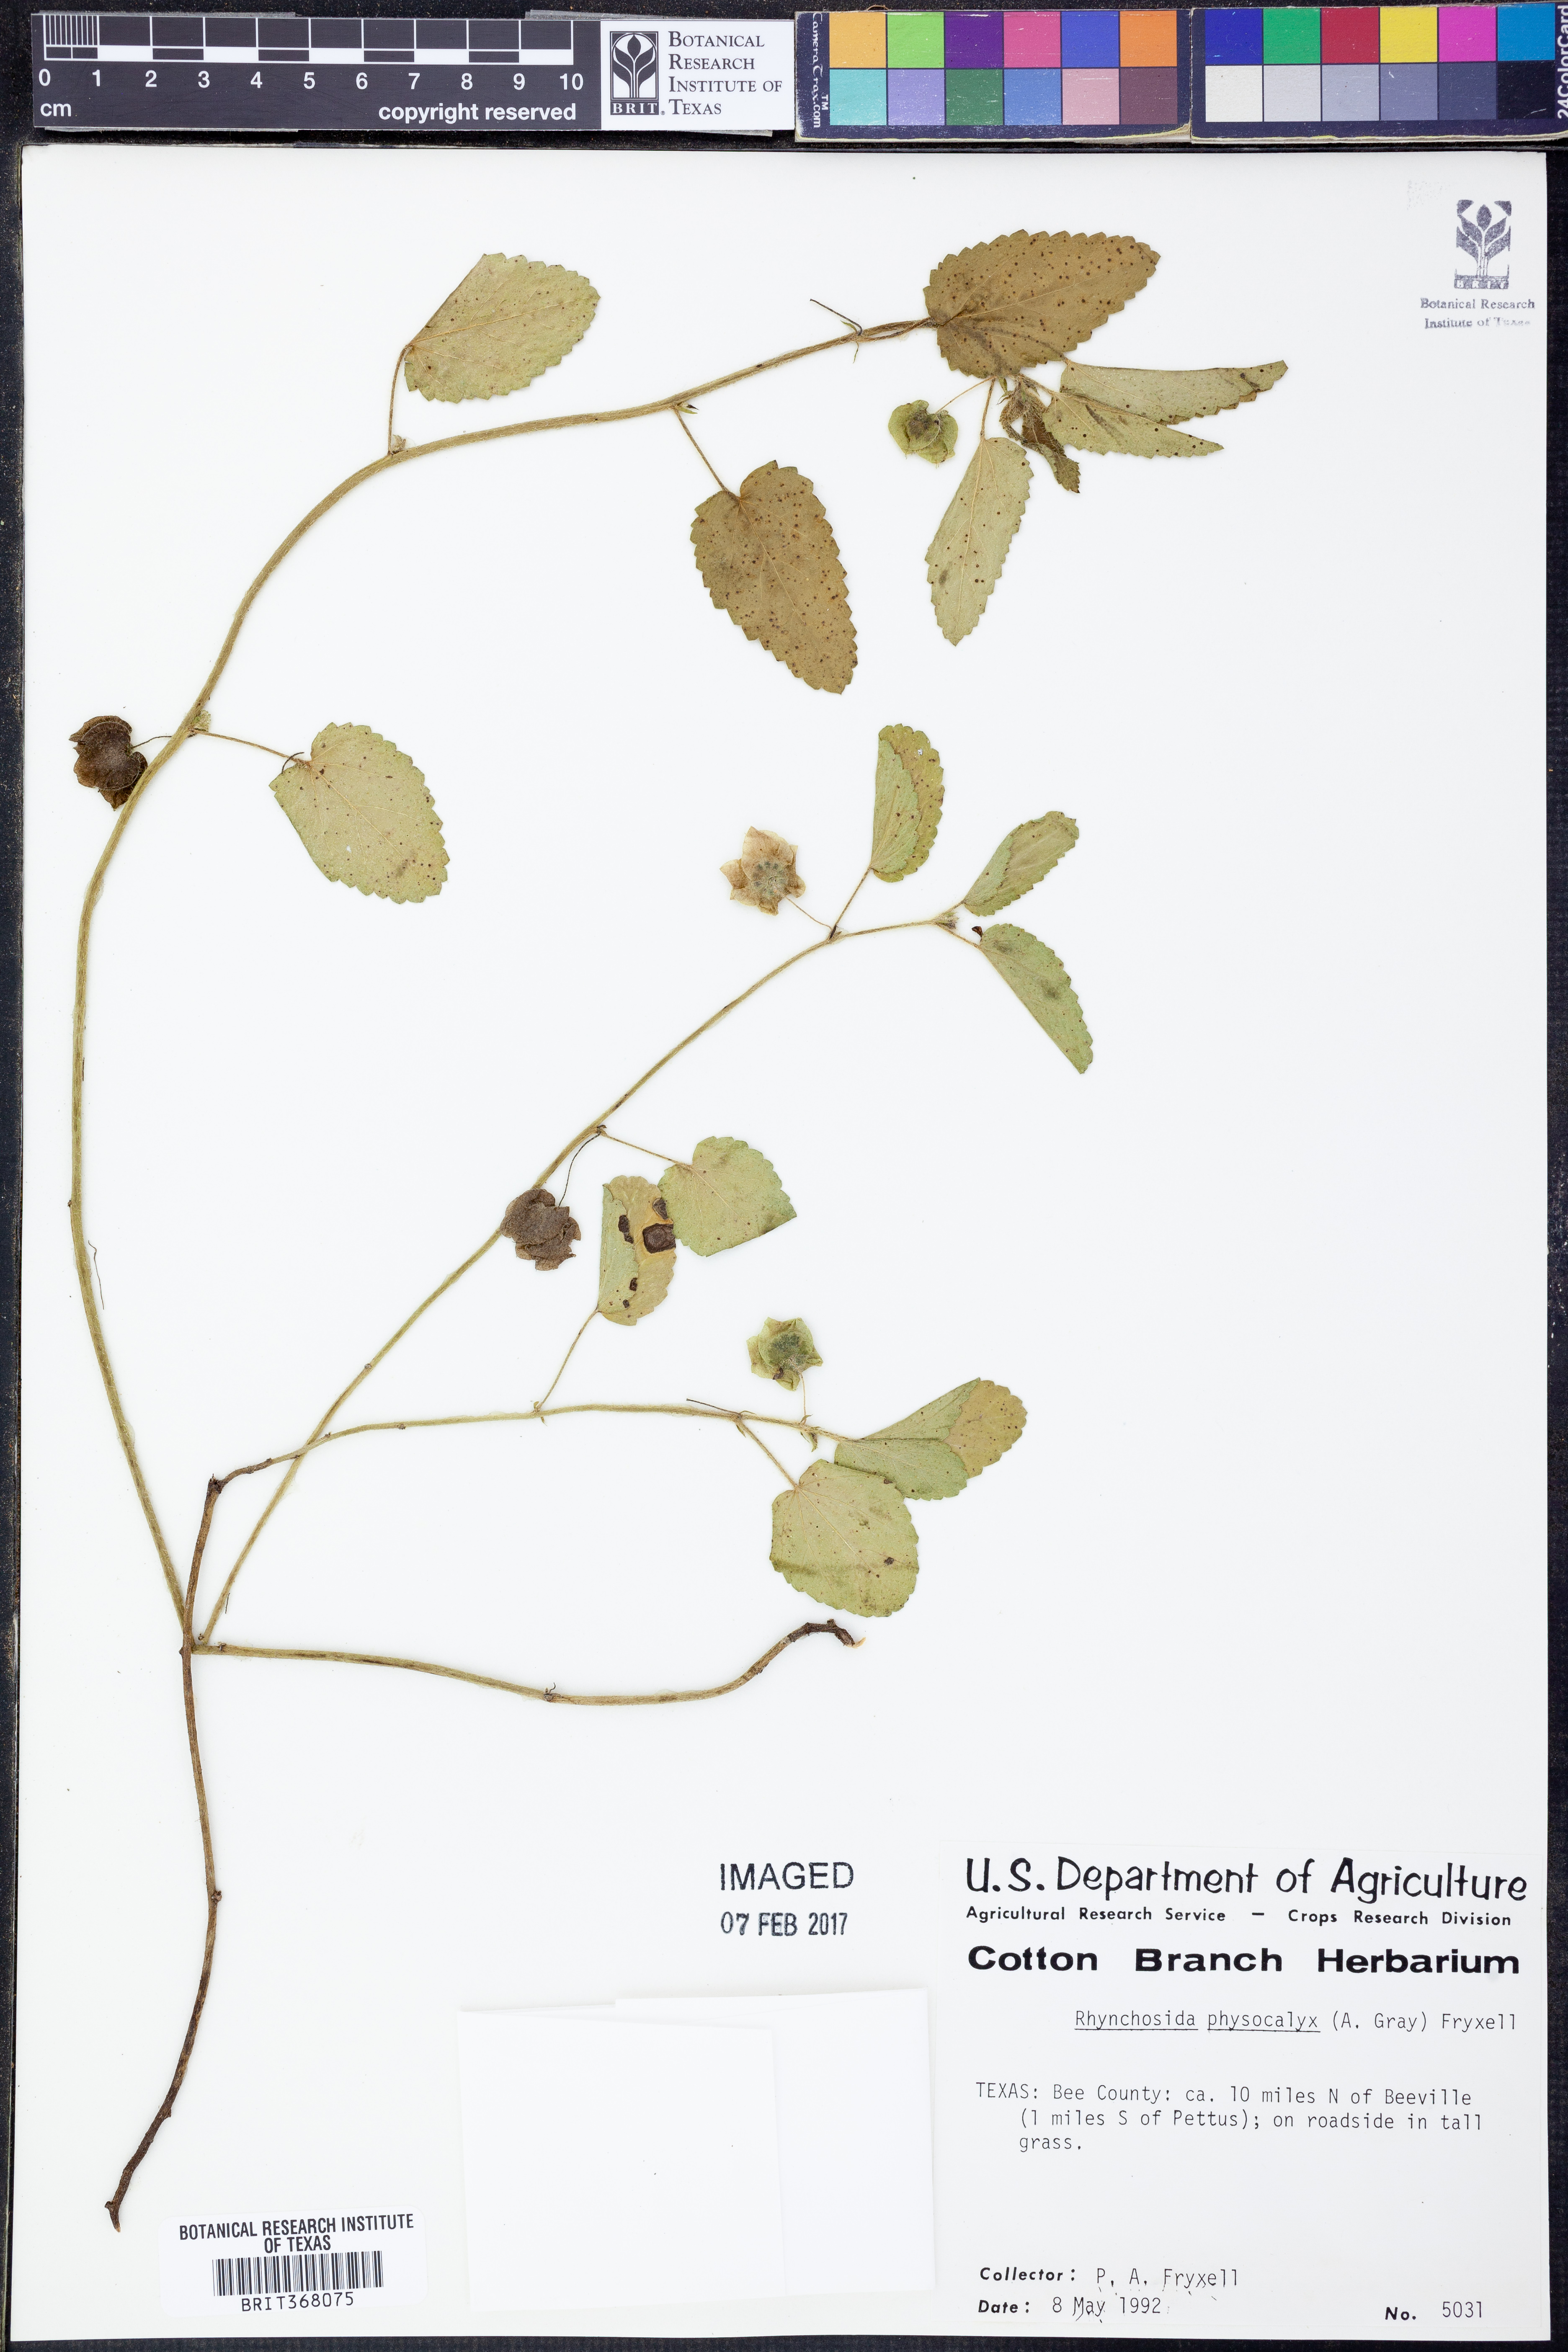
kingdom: Plantae
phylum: Tracheophyta
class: Magnoliopsida
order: Malvales
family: Malvaceae
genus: Rhynchosida
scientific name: Rhynchosida physocalyx
